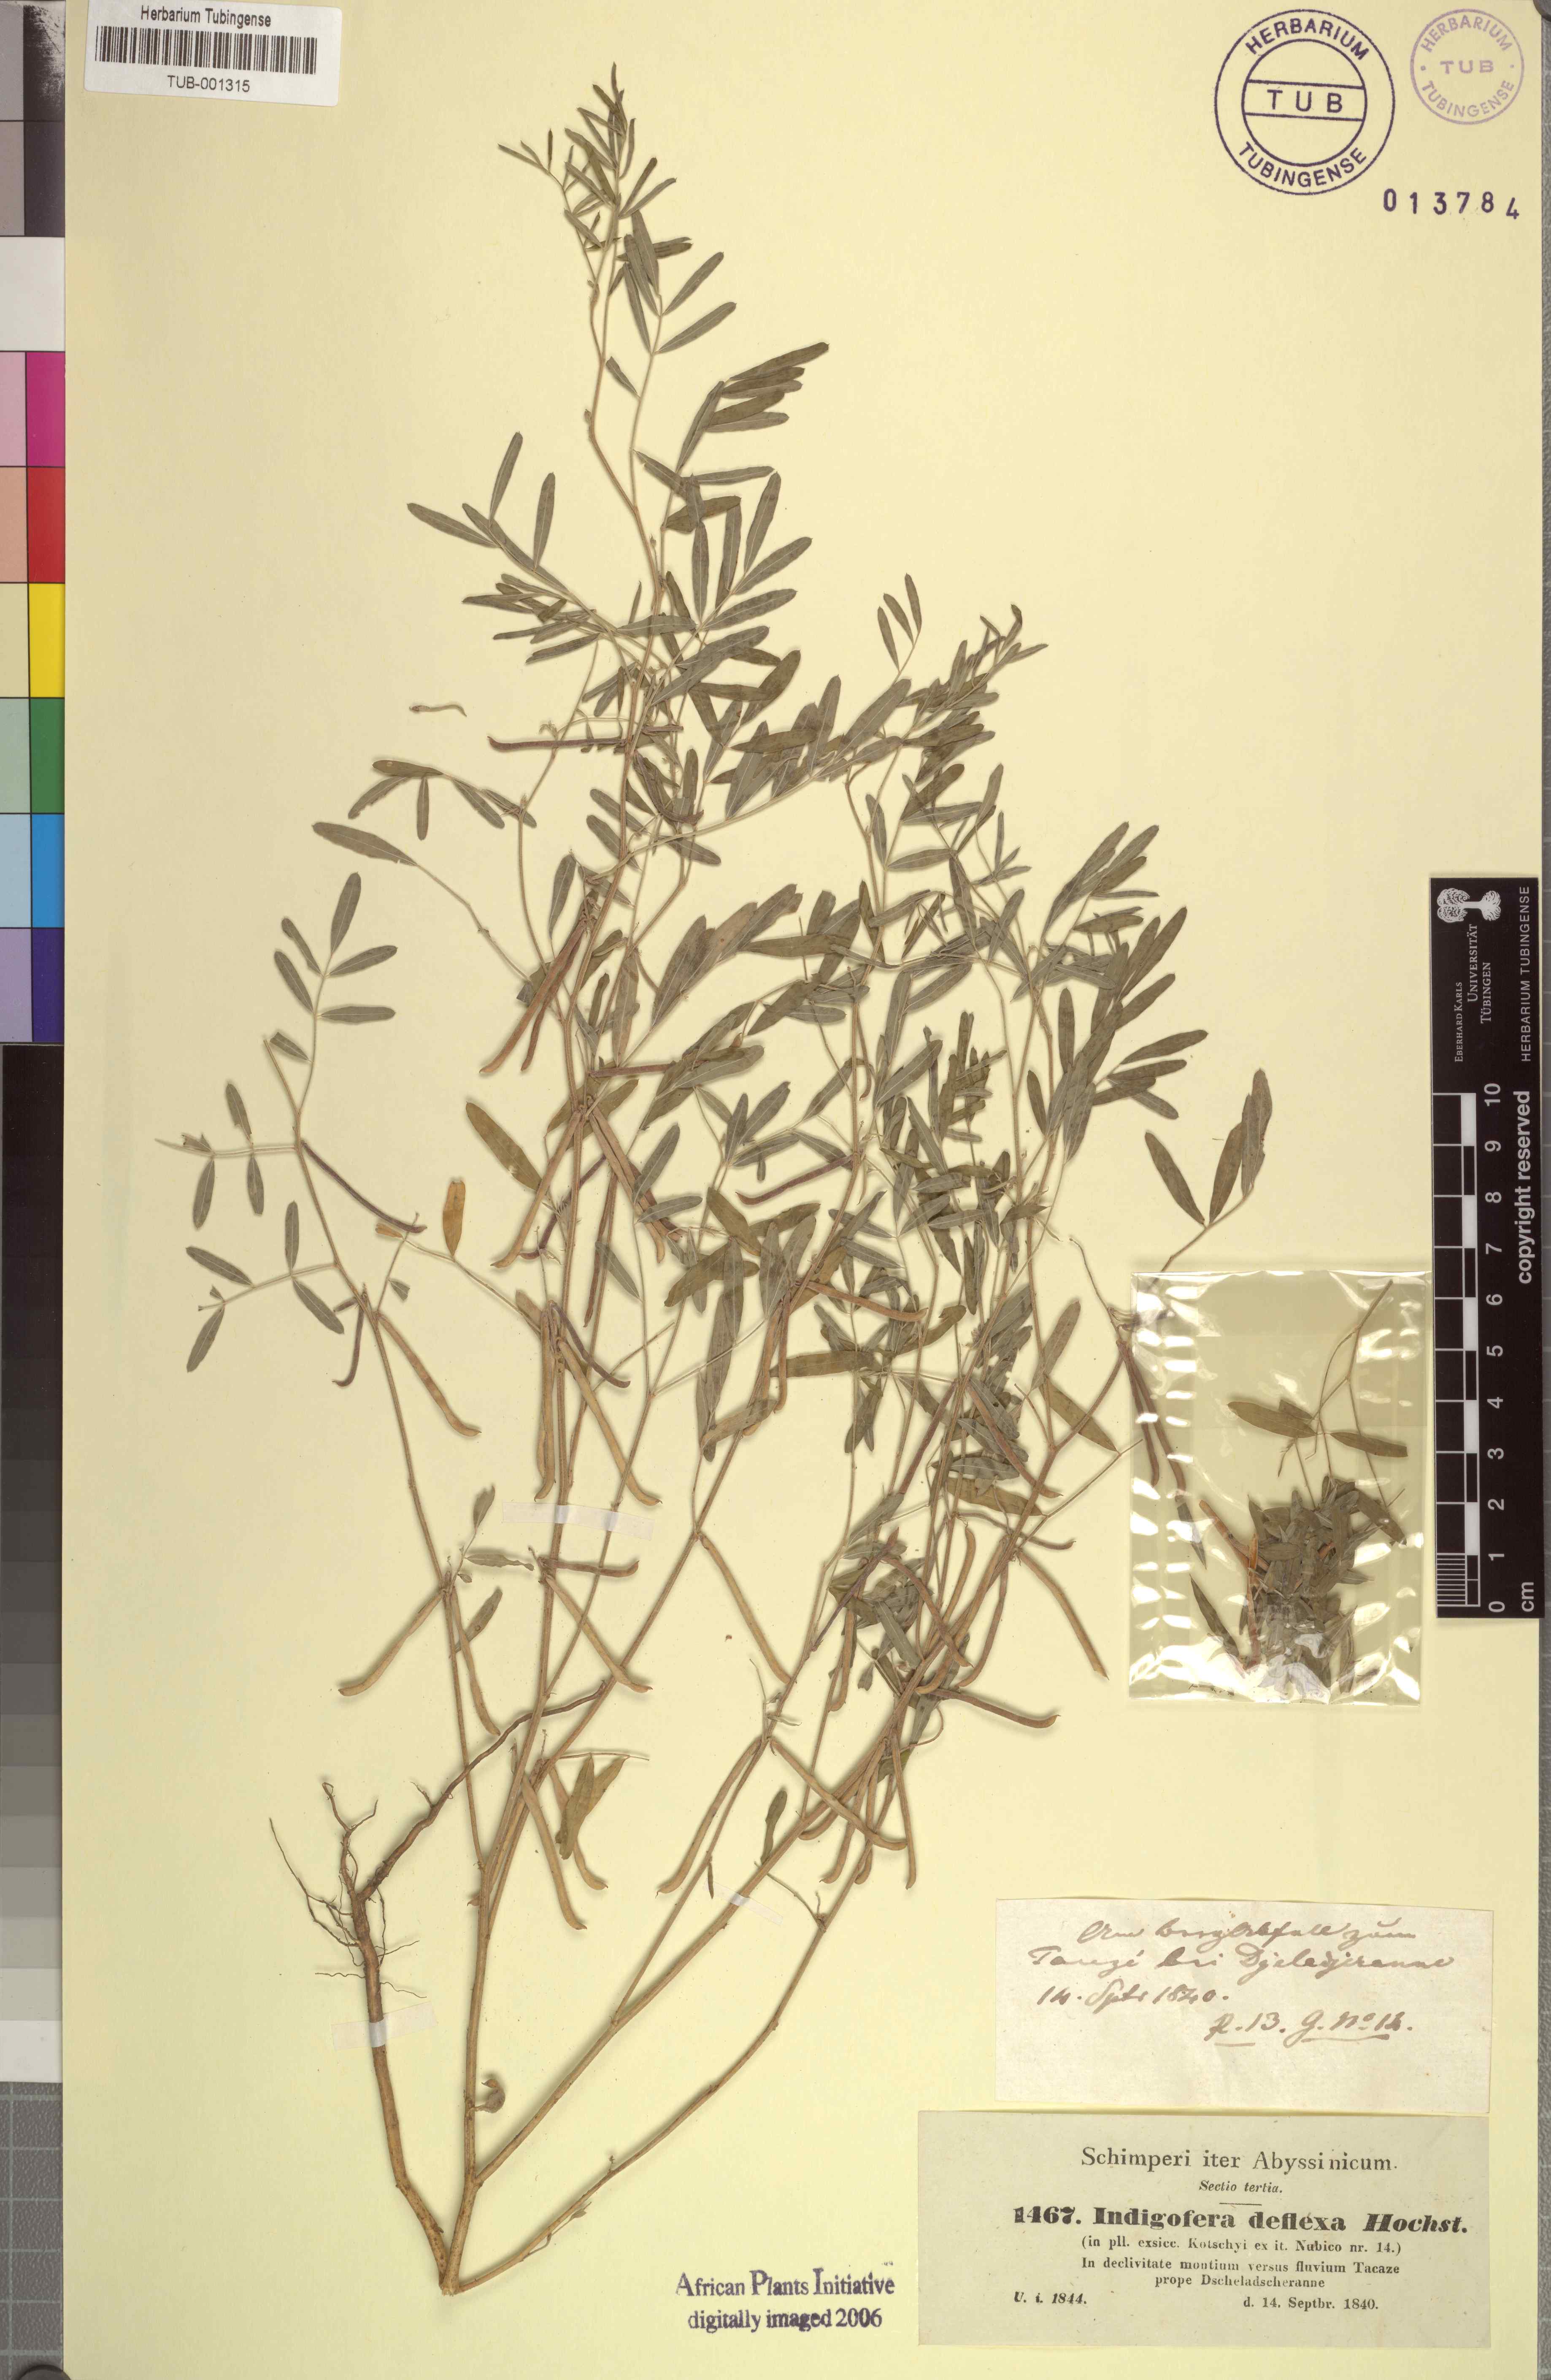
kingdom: Plantae
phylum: Tracheophyta
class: Magnoliopsida
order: Fabales
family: Fabaceae
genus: Indigastrum
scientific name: Indigastrum parviflorum
